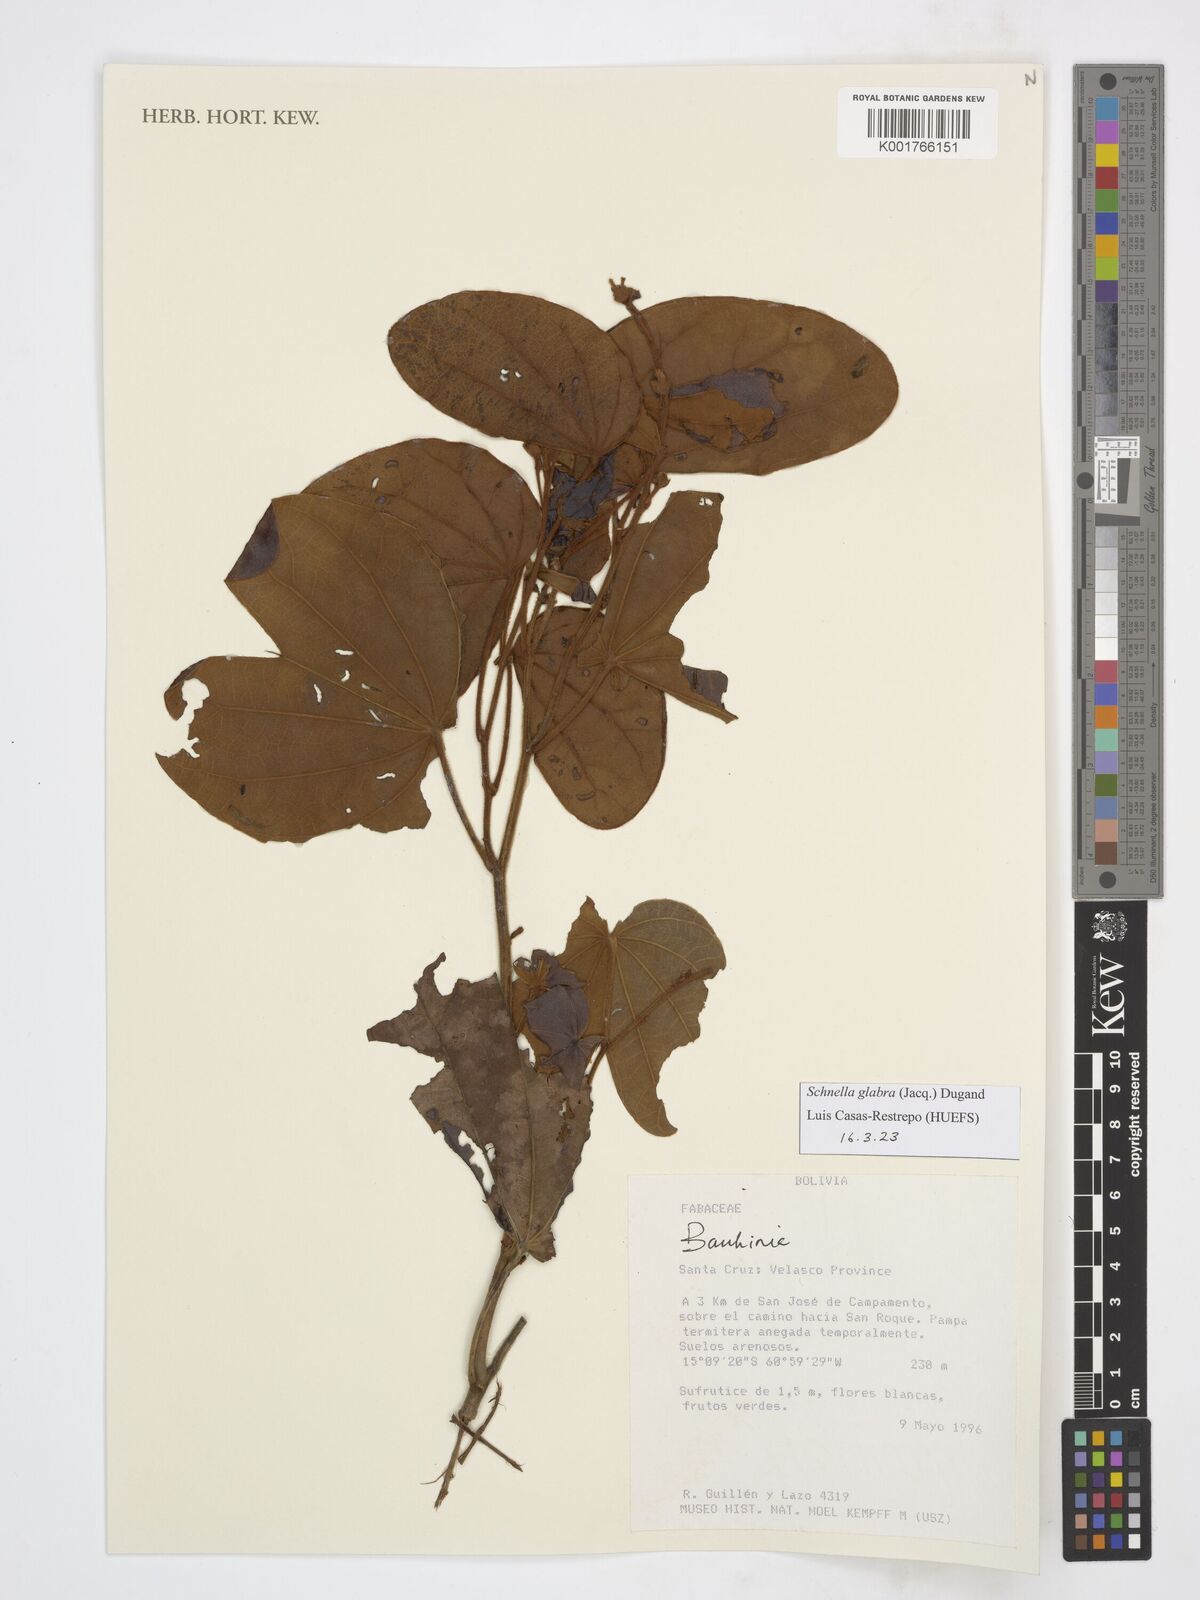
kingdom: Plantae
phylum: Tracheophyta
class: Magnoliopsida
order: Fabales
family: Fabaceae
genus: Schnella
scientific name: Schnella glabra
